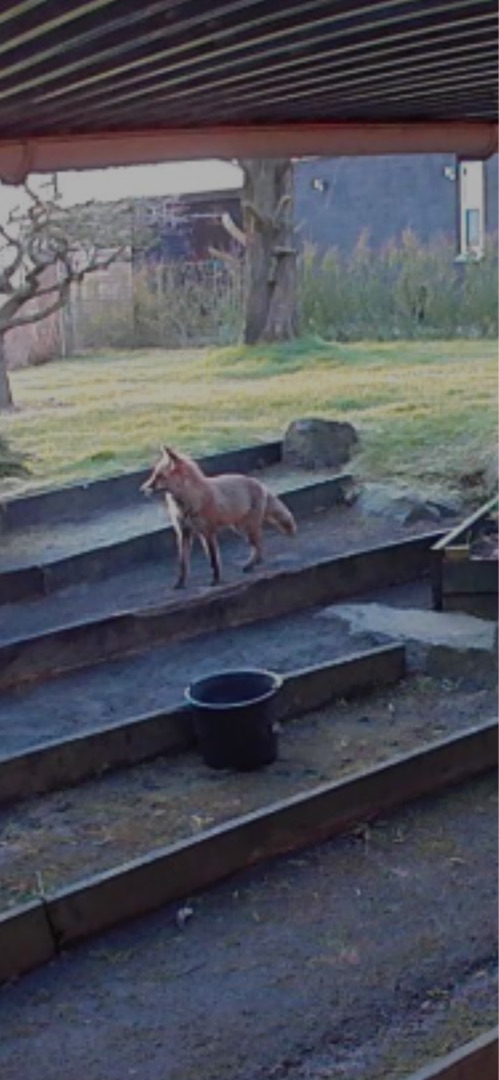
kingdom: Animalia
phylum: Chordata
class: Mammalia
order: Carnivora
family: Canidae
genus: Vulpes
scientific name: Vulpes vulpes
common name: Ræv
